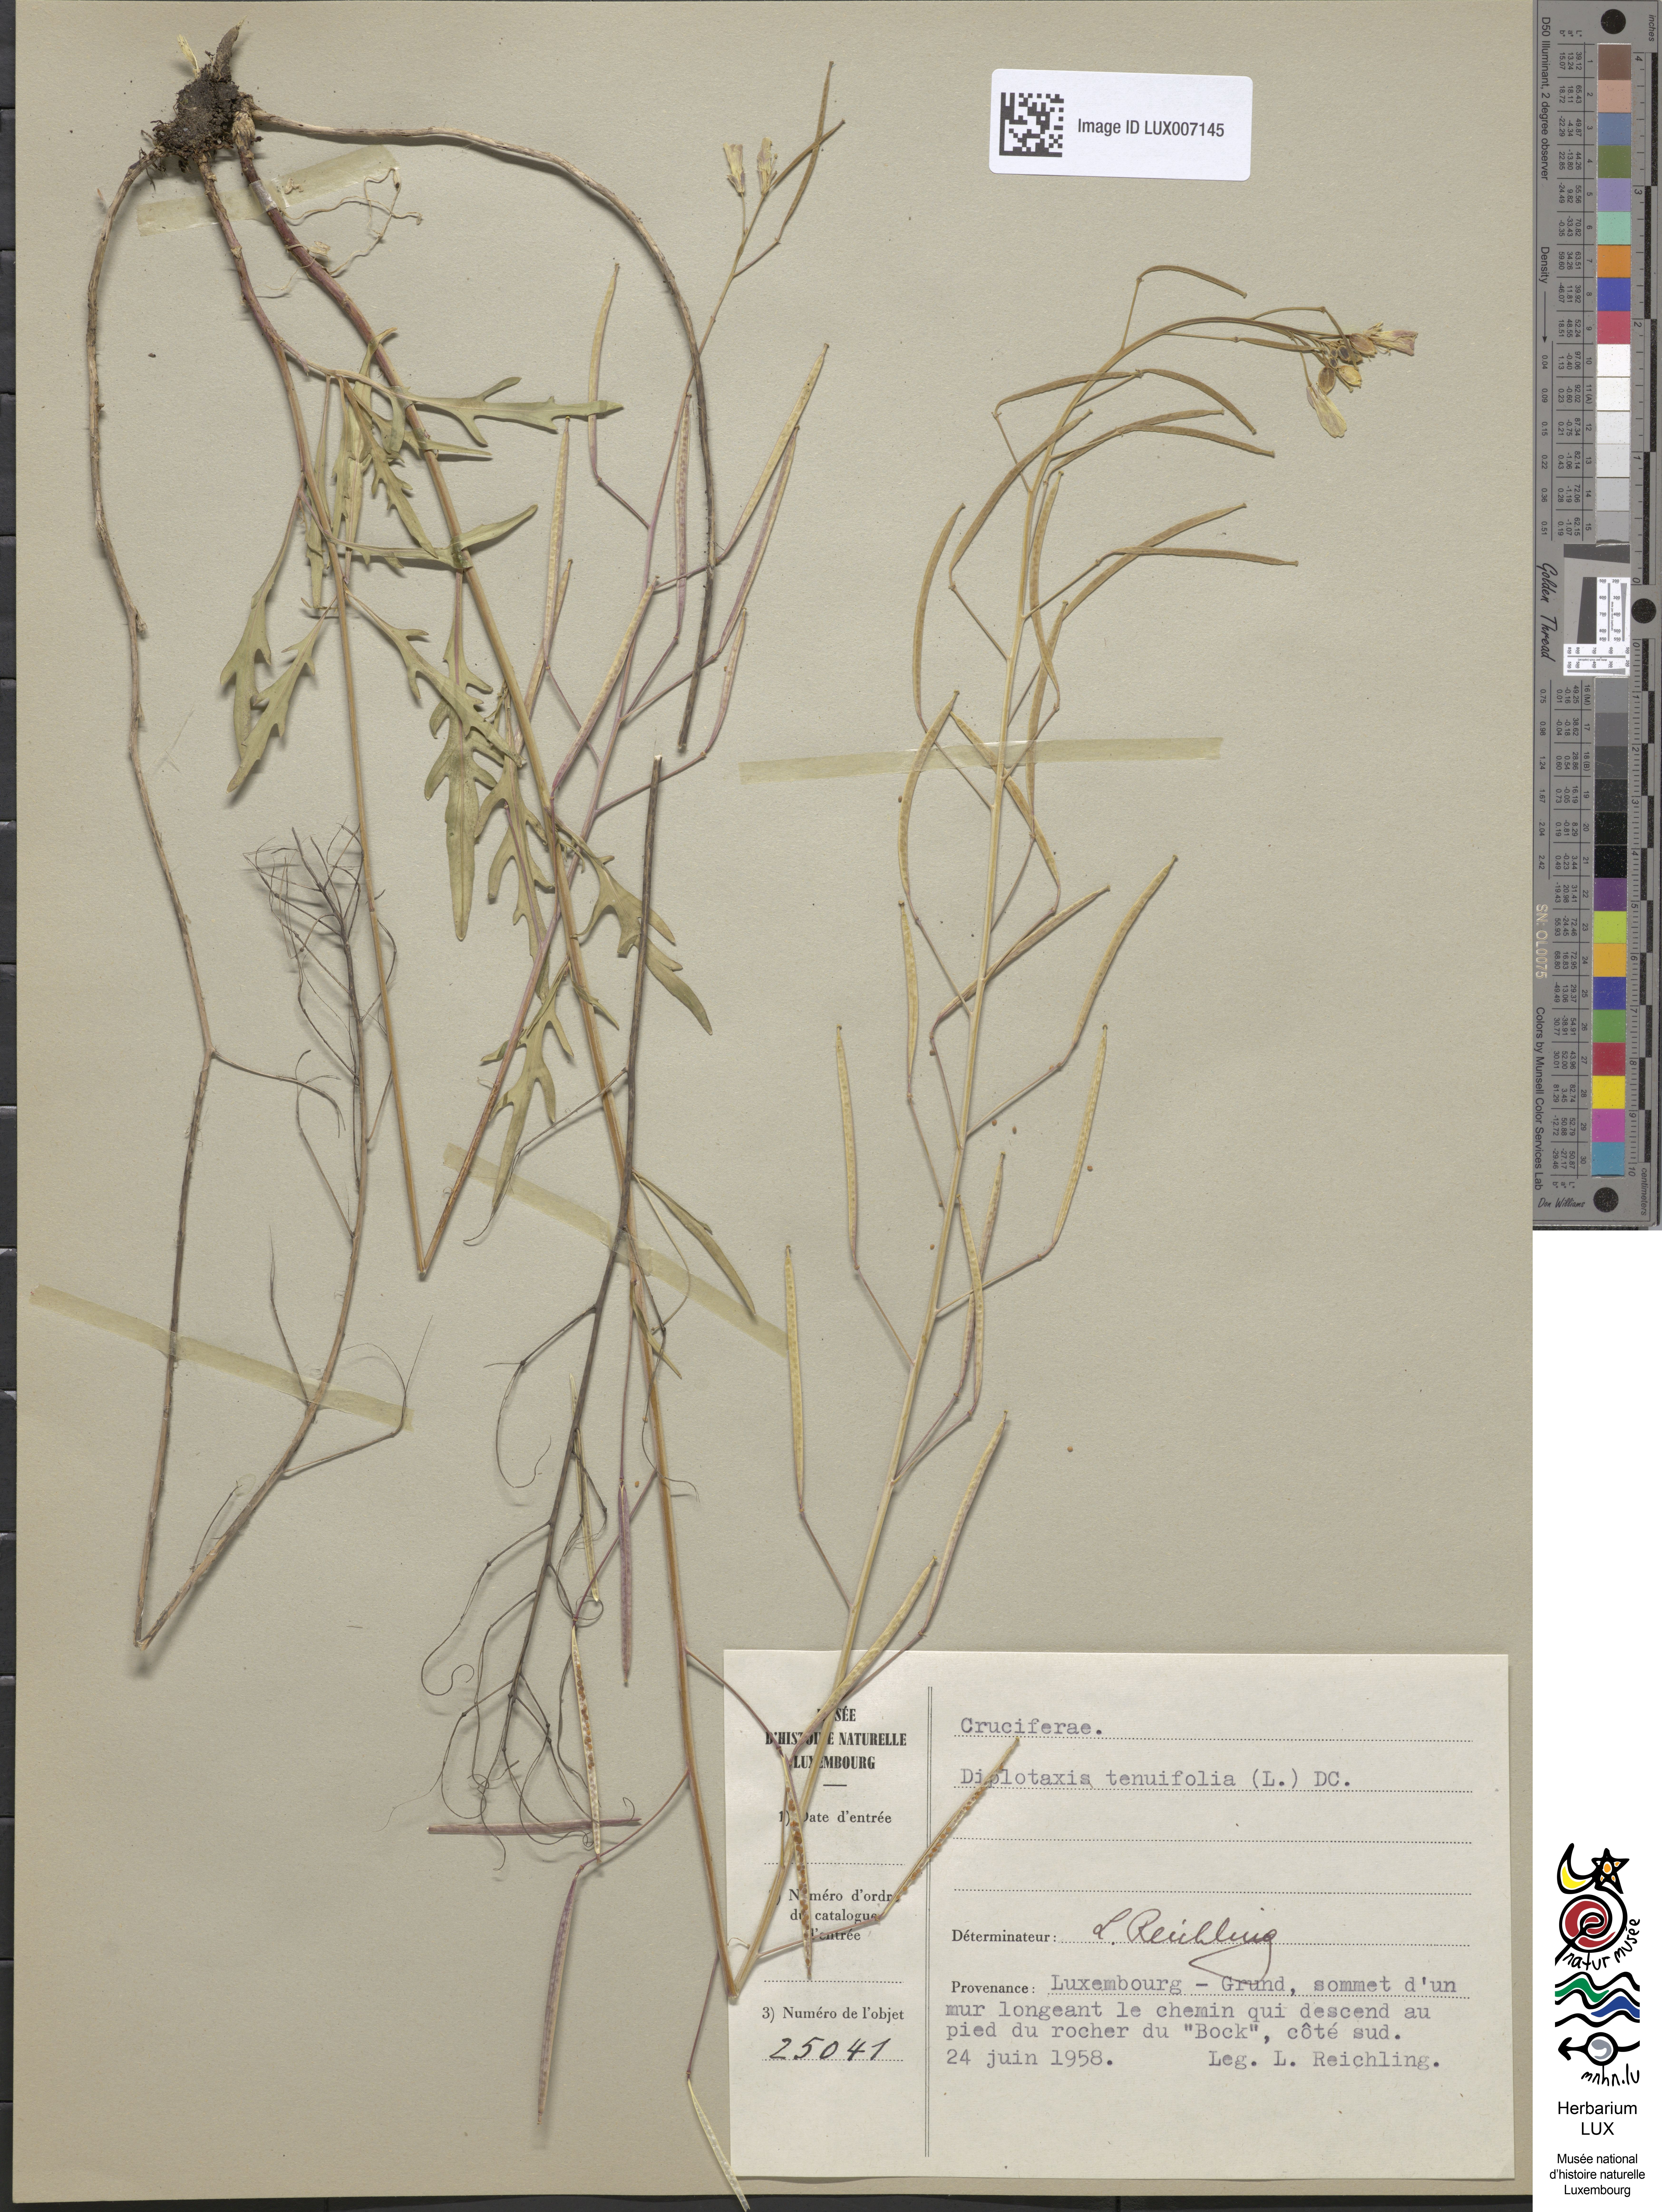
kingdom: Plantae
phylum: Tracheophyta
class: Magnoliopsida
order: Brassicales
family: Brassicaceae
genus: Diplotaxis
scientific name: Diplotaxis tenuifolia
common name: Perennial wall-rocket
